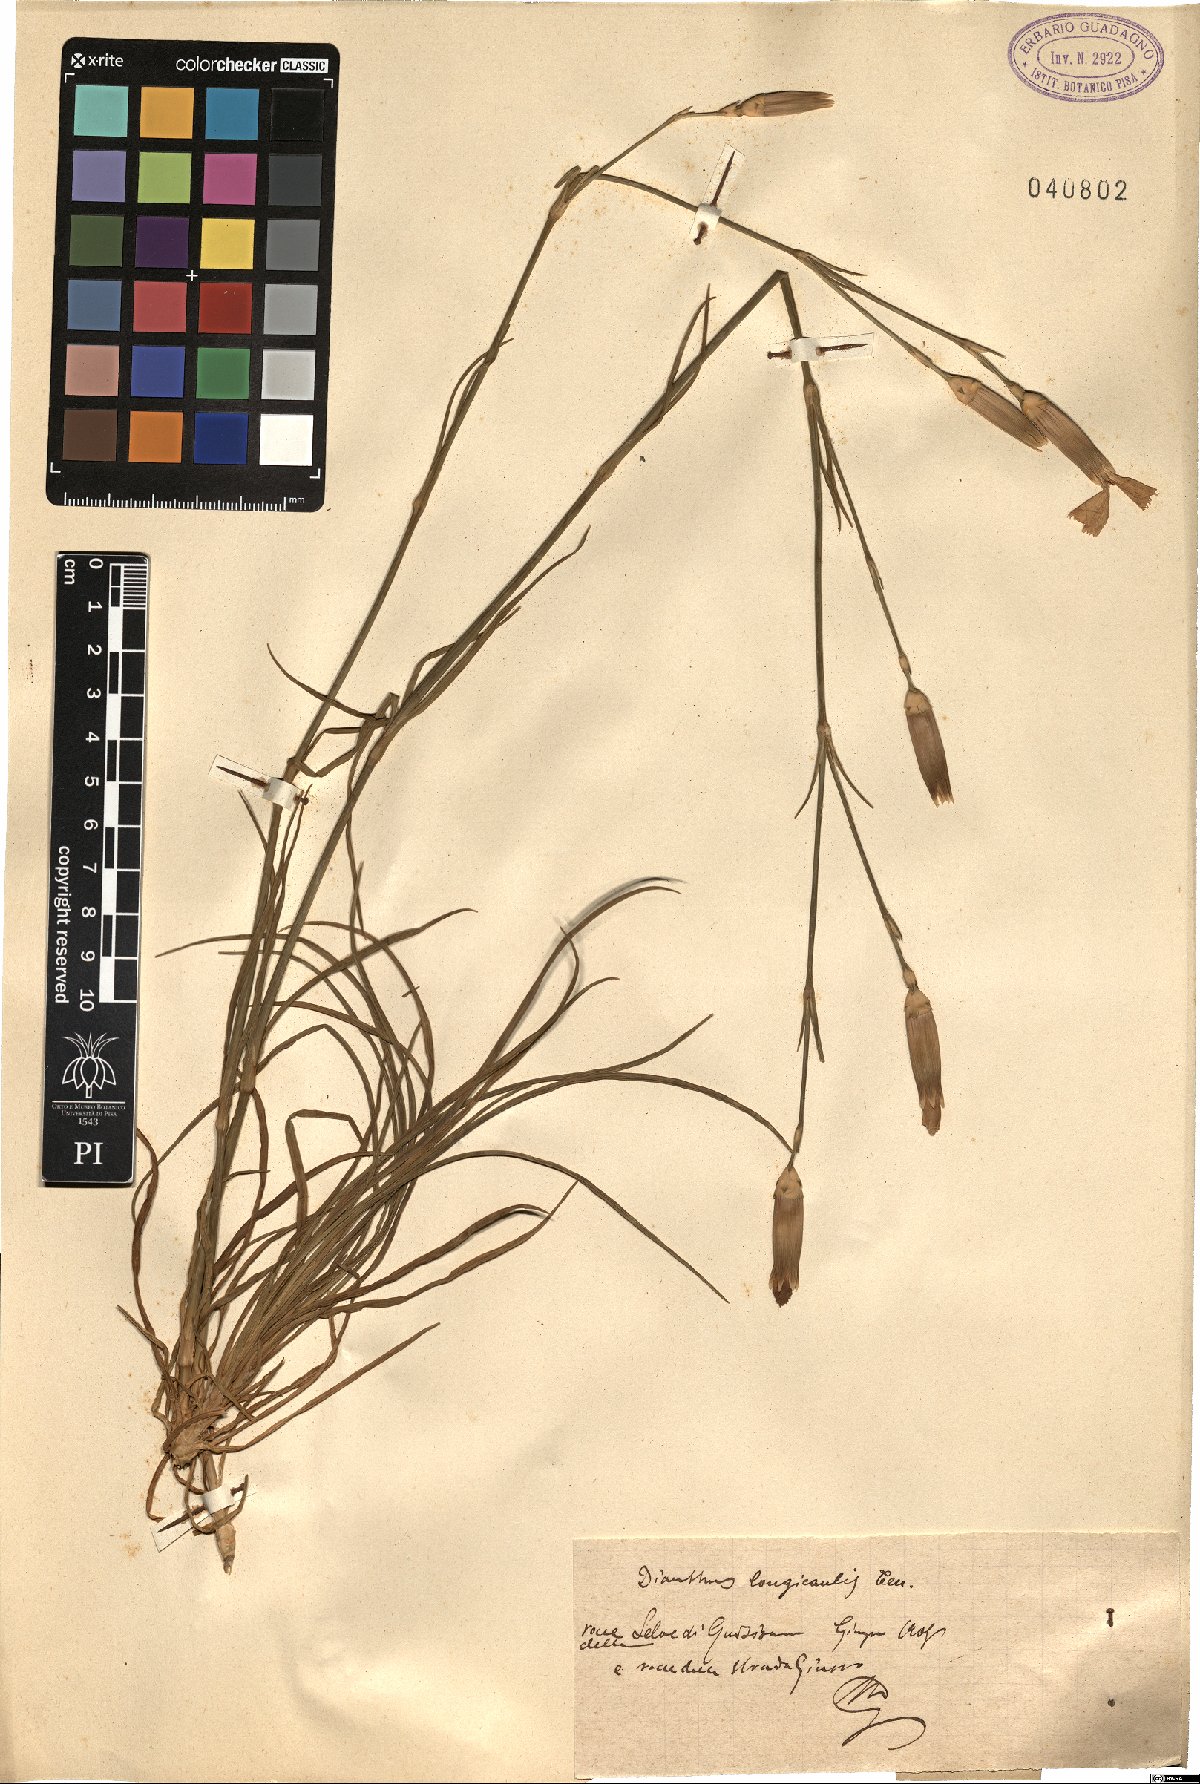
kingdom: Plantae
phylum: Tracheophyta
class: Magnoliopsida
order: Caryophyllales
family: Caryophyllaceae
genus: Dianthus
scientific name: Dianthus virgineus
